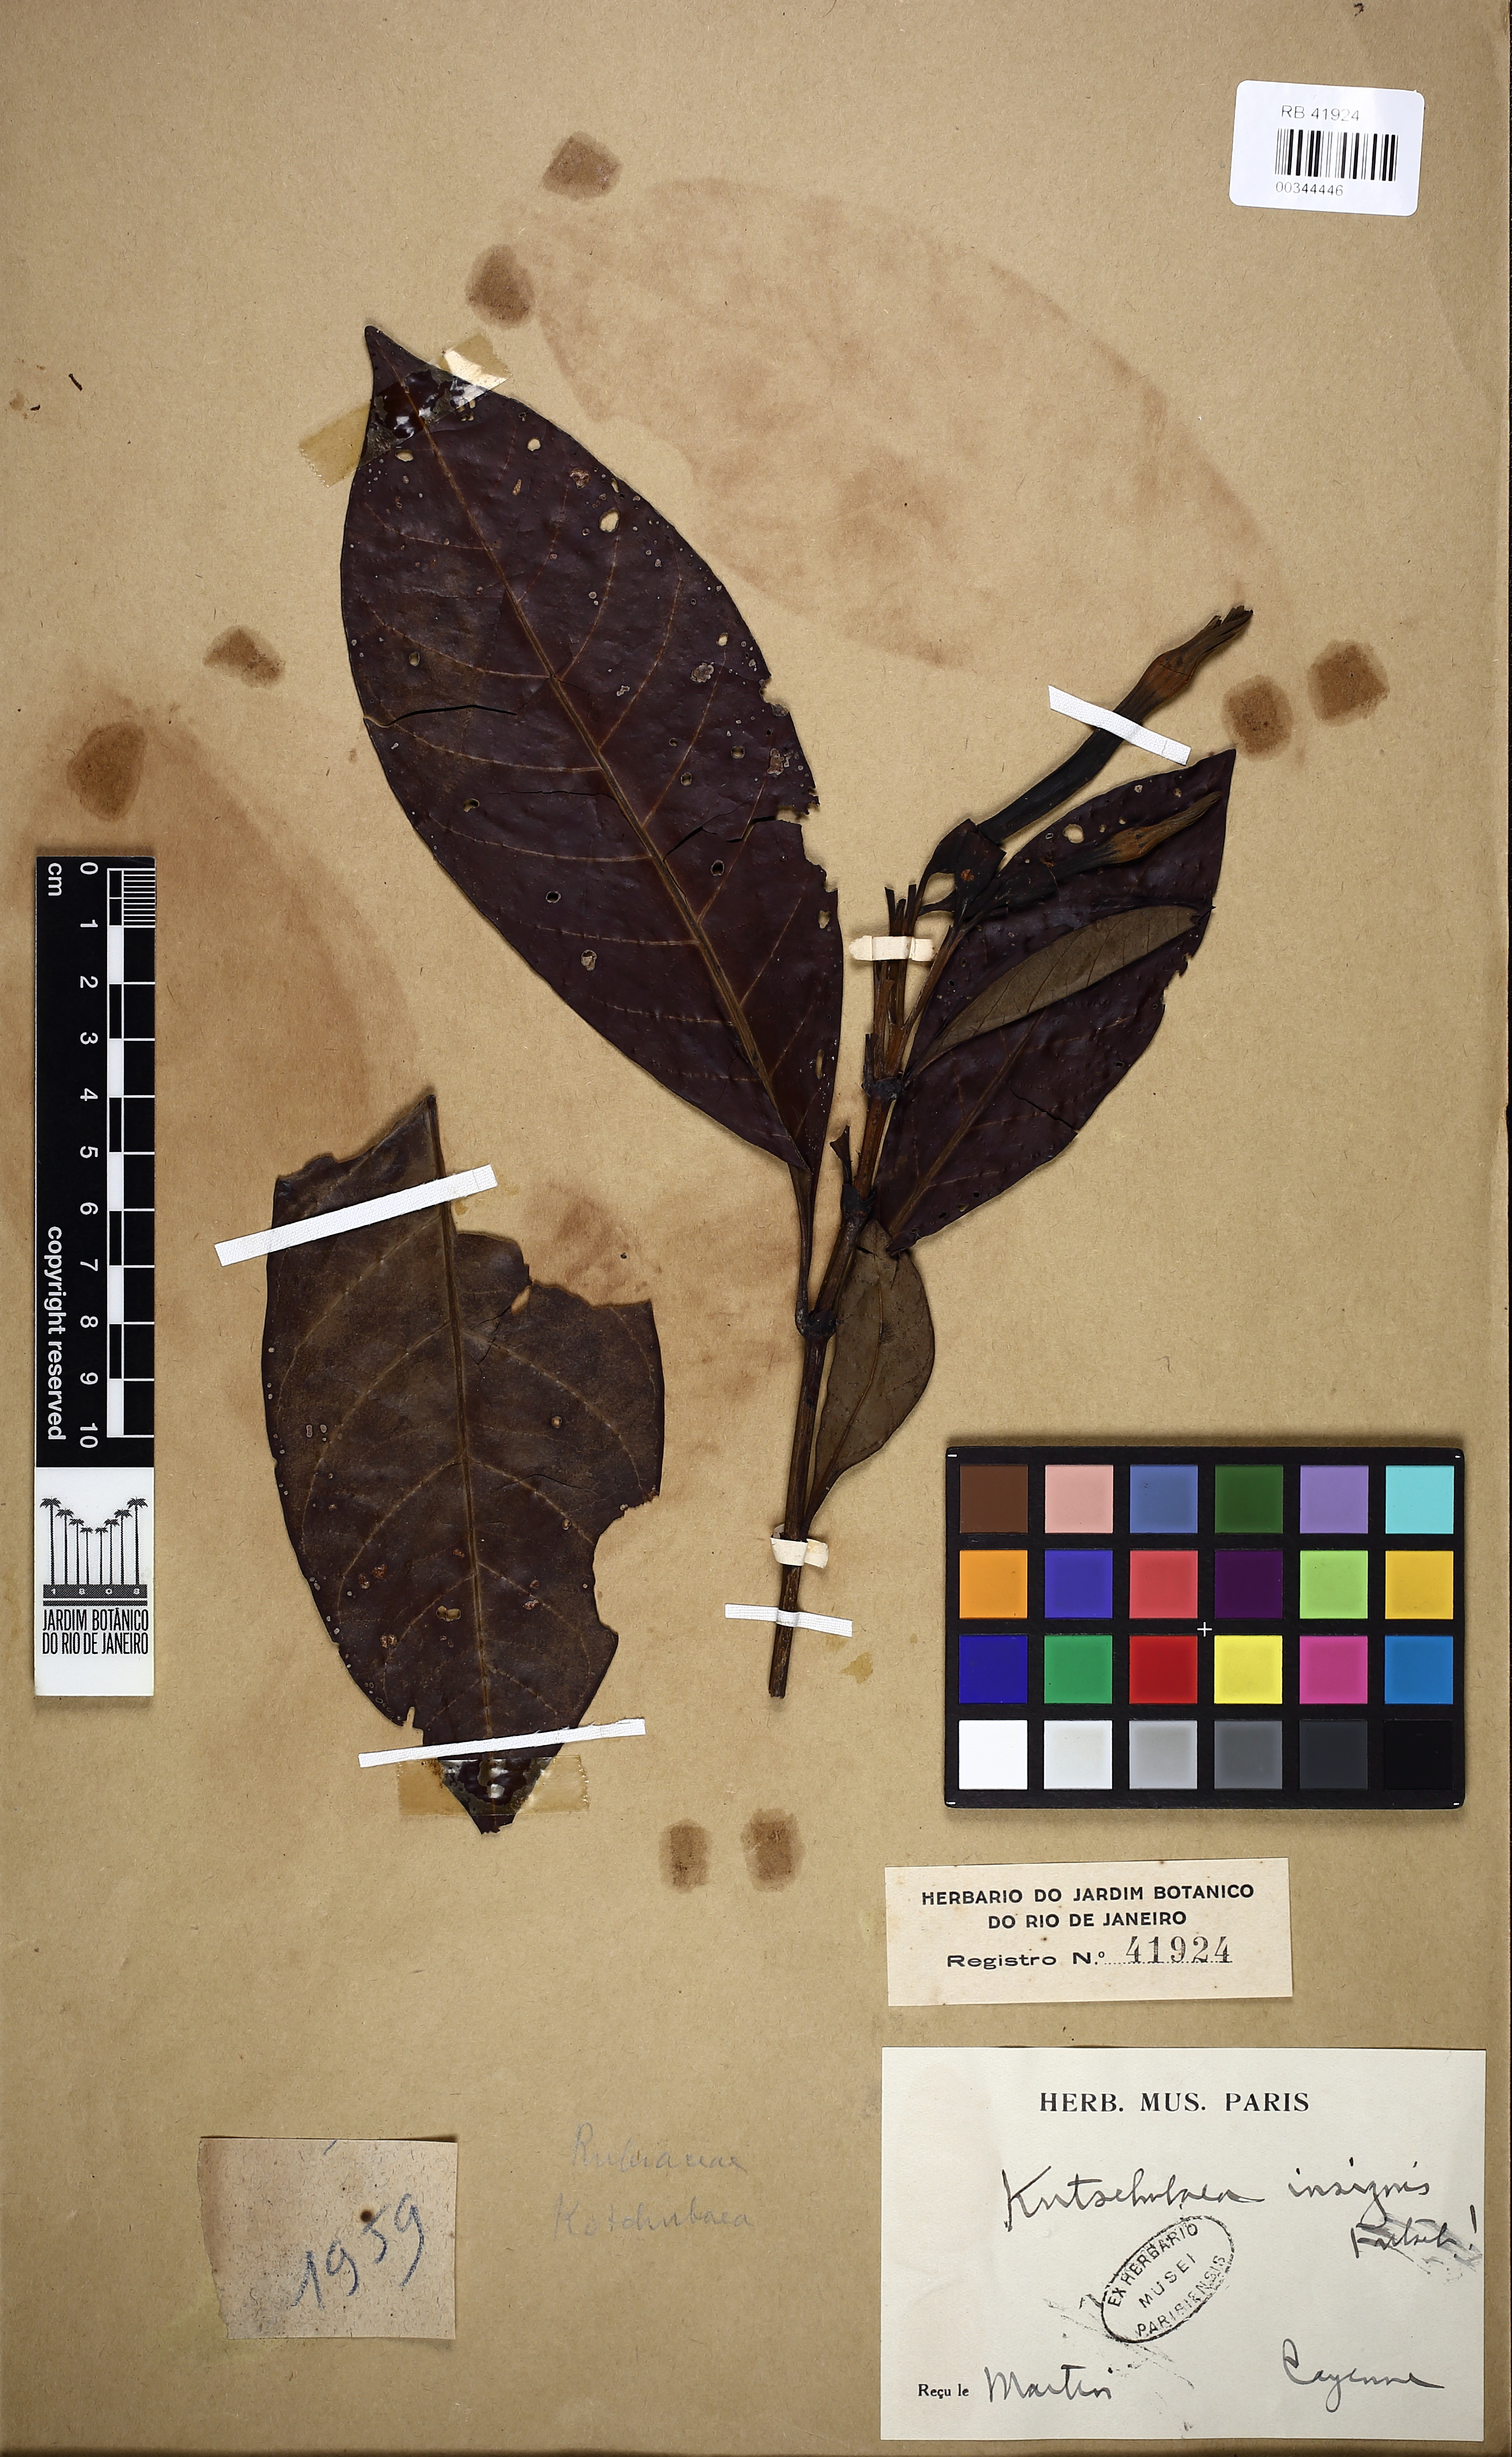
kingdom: Plantae
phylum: Tracheophyta
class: Magnoliopsida
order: Gentianales
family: Rubiaceae
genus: Kutchubaea
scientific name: Kutchubaea insignis
